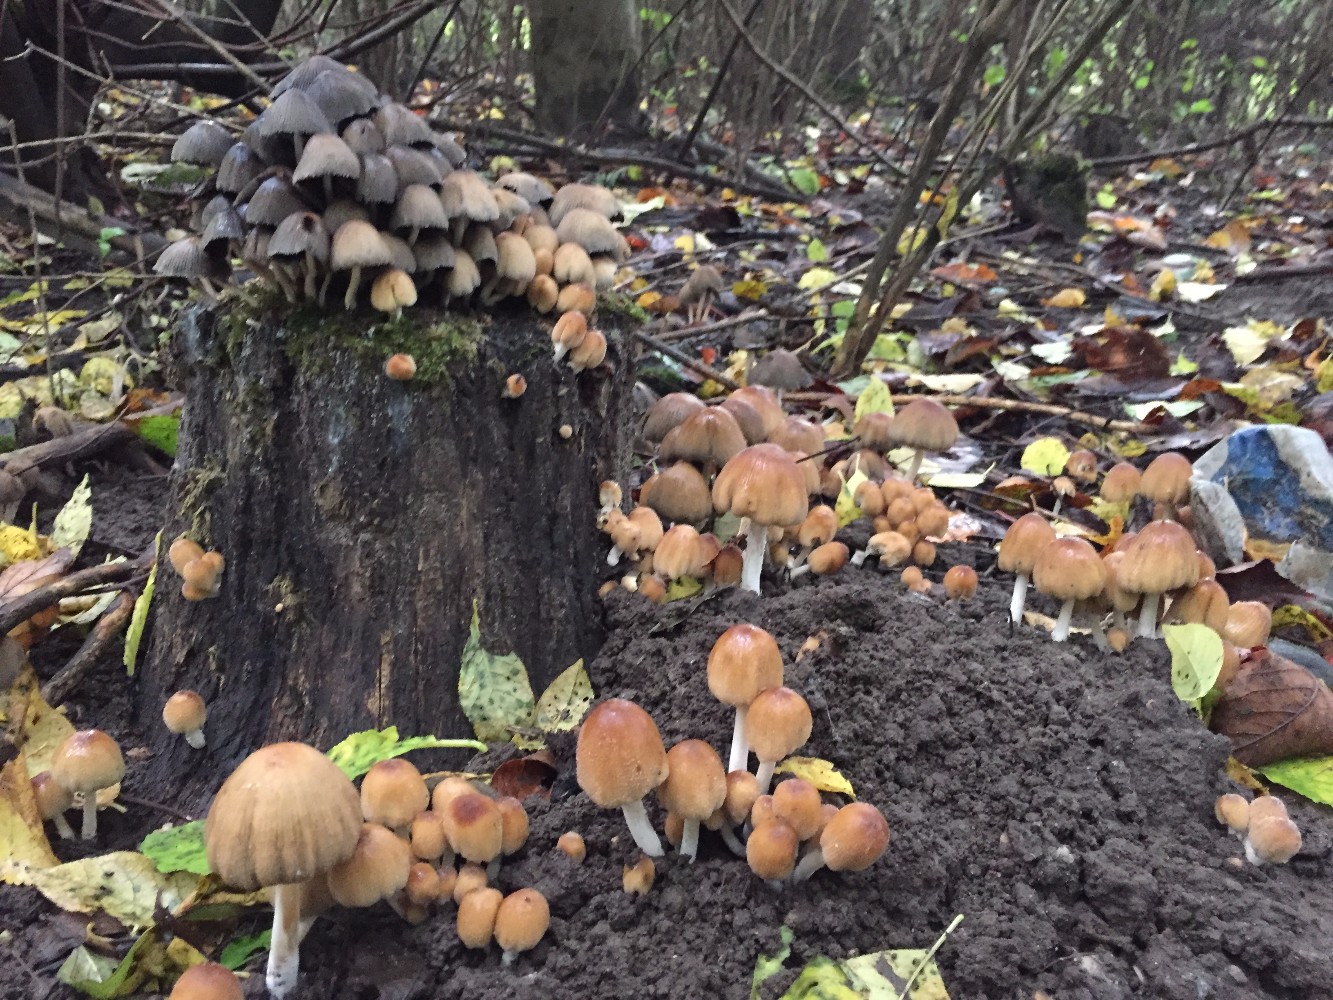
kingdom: Fungi
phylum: Basidiomycota
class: Agaricomycetes
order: Agaricales
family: Psathyrellaceae
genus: Coprinellus
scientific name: Coprinellus micaceus
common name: glimmer-blækhat
